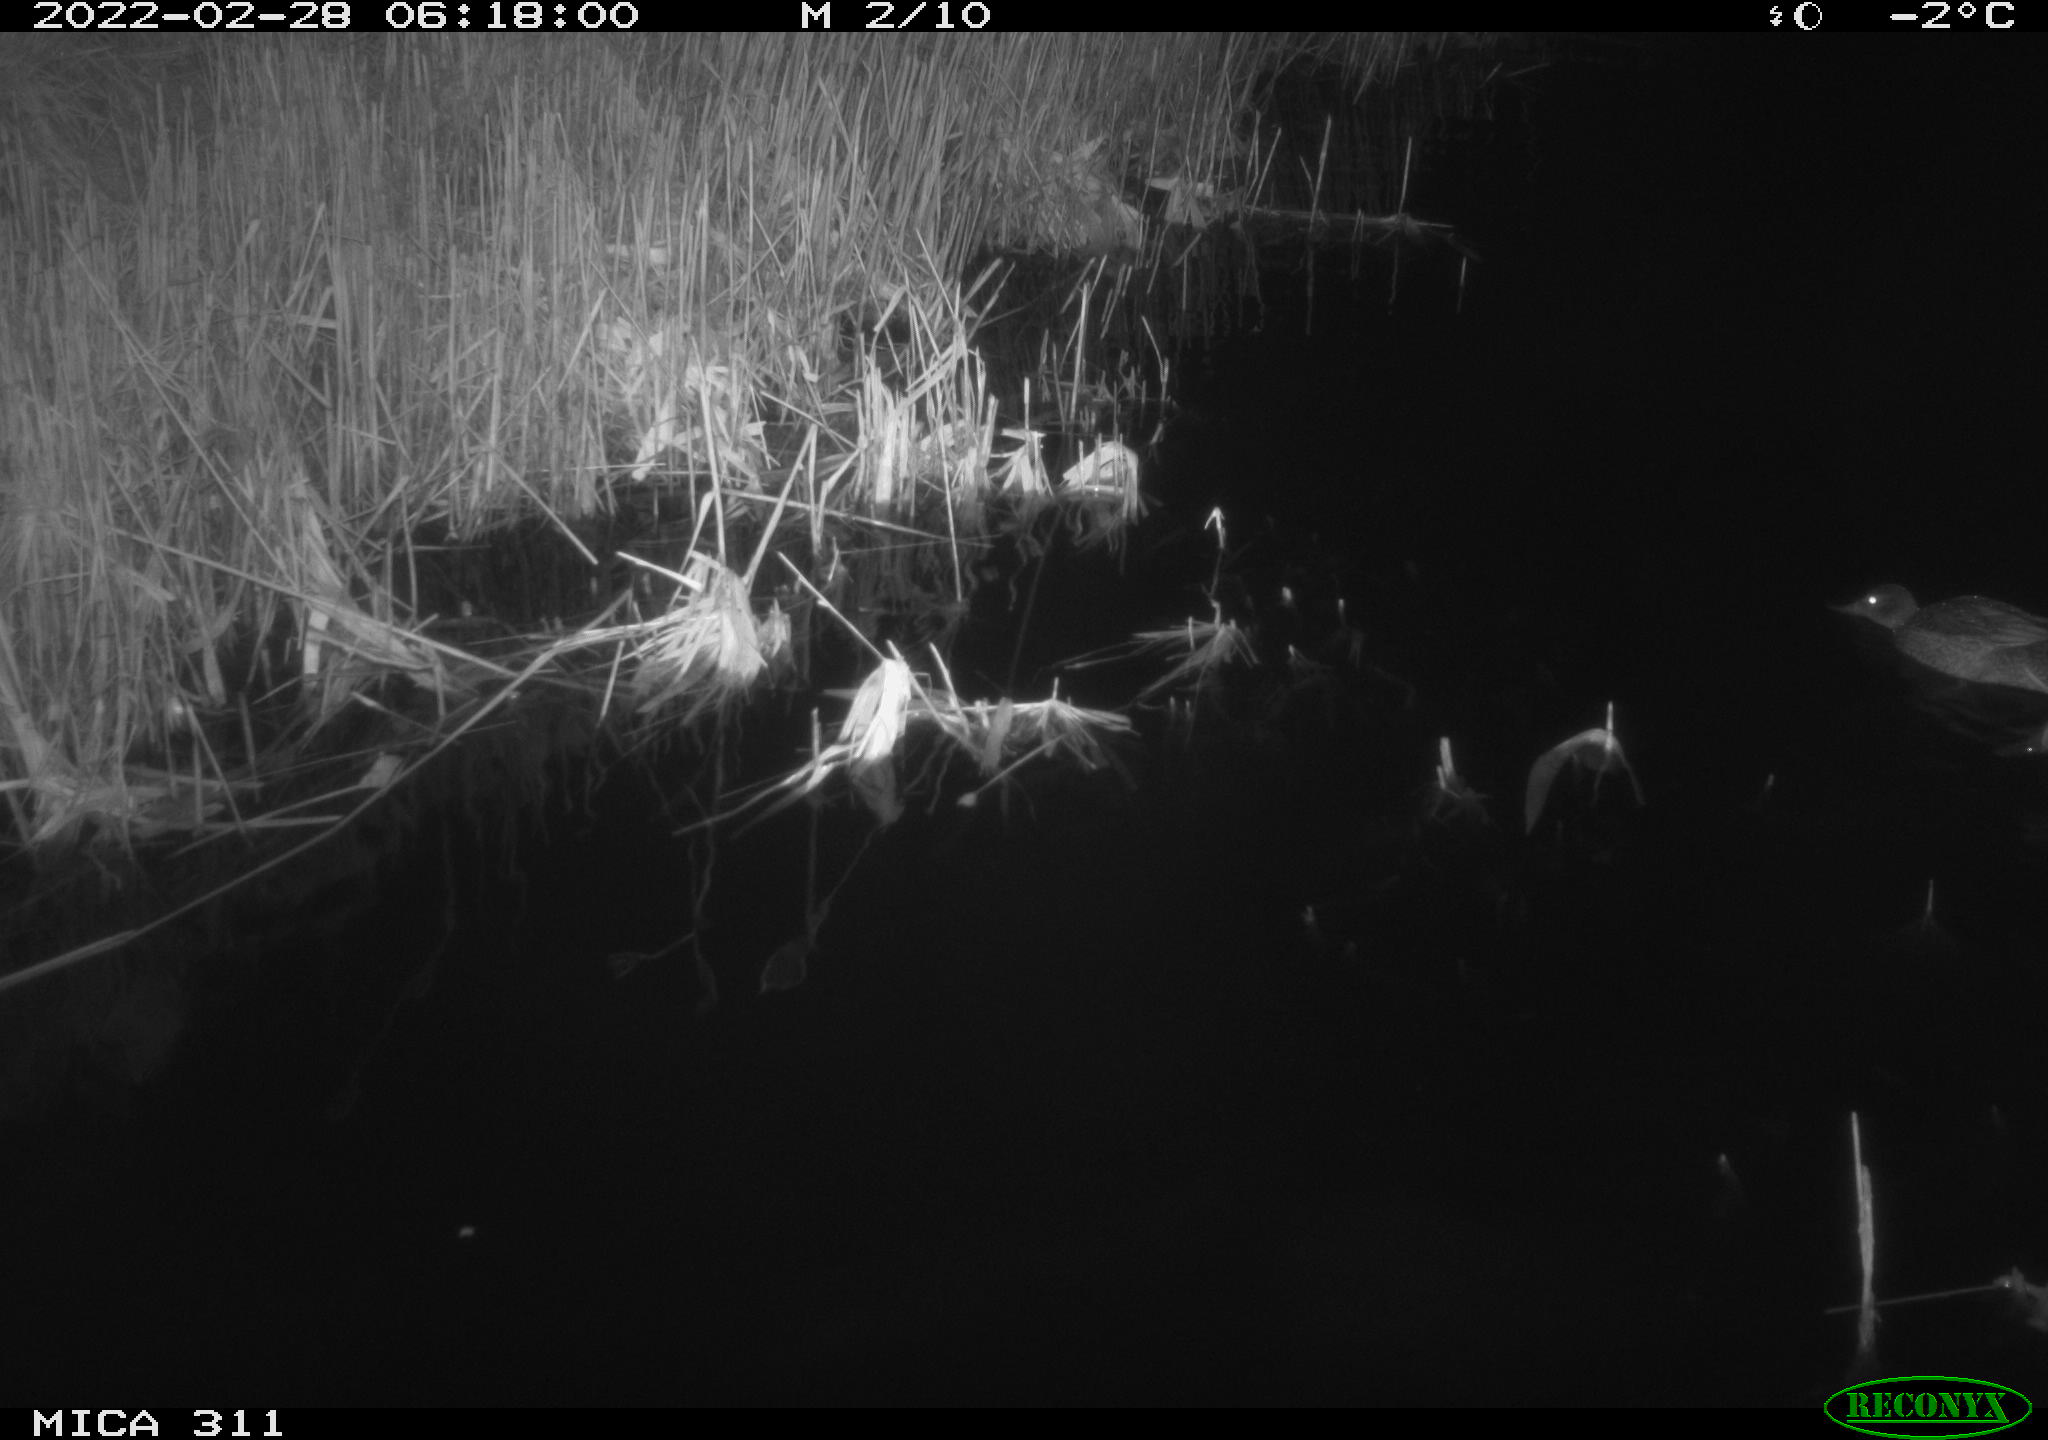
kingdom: Animalia
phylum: Chordata
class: Aves
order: Anseriformes
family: Anatidae
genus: Anas
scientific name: Anas crecca
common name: Eurasian teal
